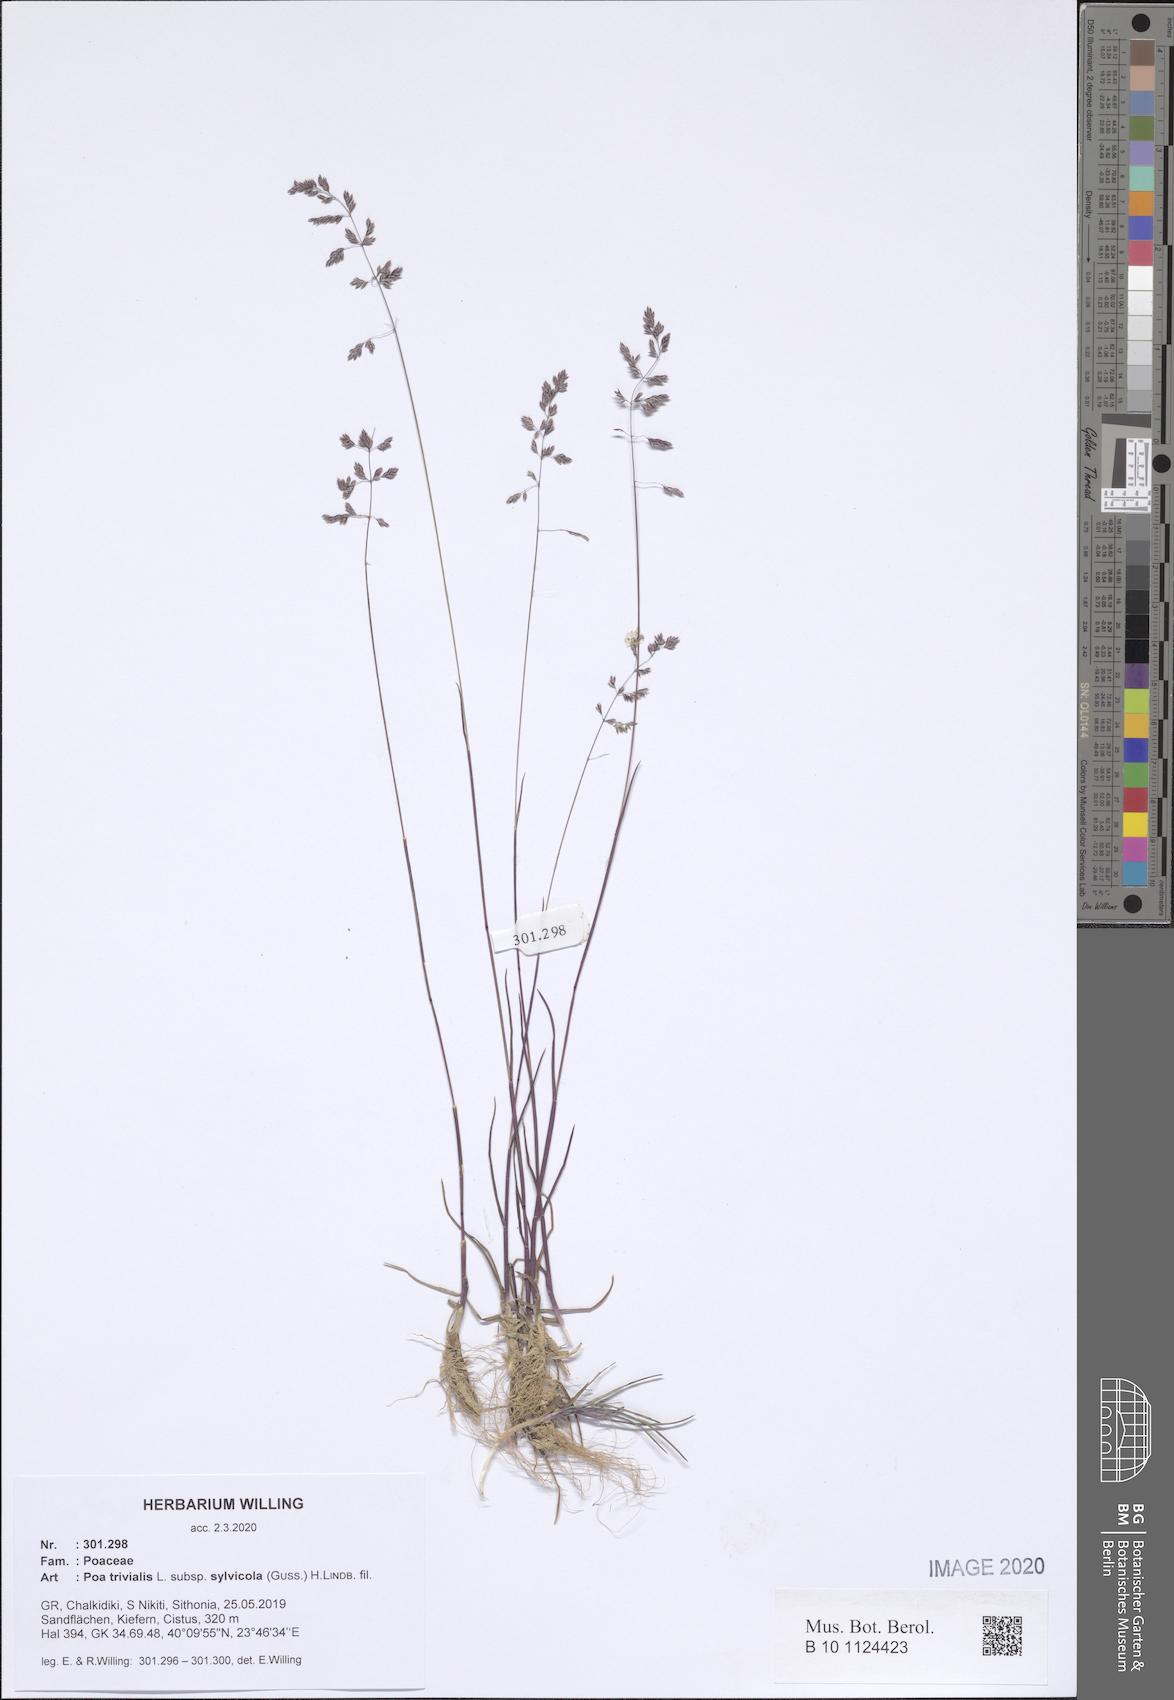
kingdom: Plantae
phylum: Tracheophyta
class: Magnoliopsida
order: Geraniales
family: Geraniaceae
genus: Geranium
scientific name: Geranium rotundifolium
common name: Round-leaved crane's-bill
